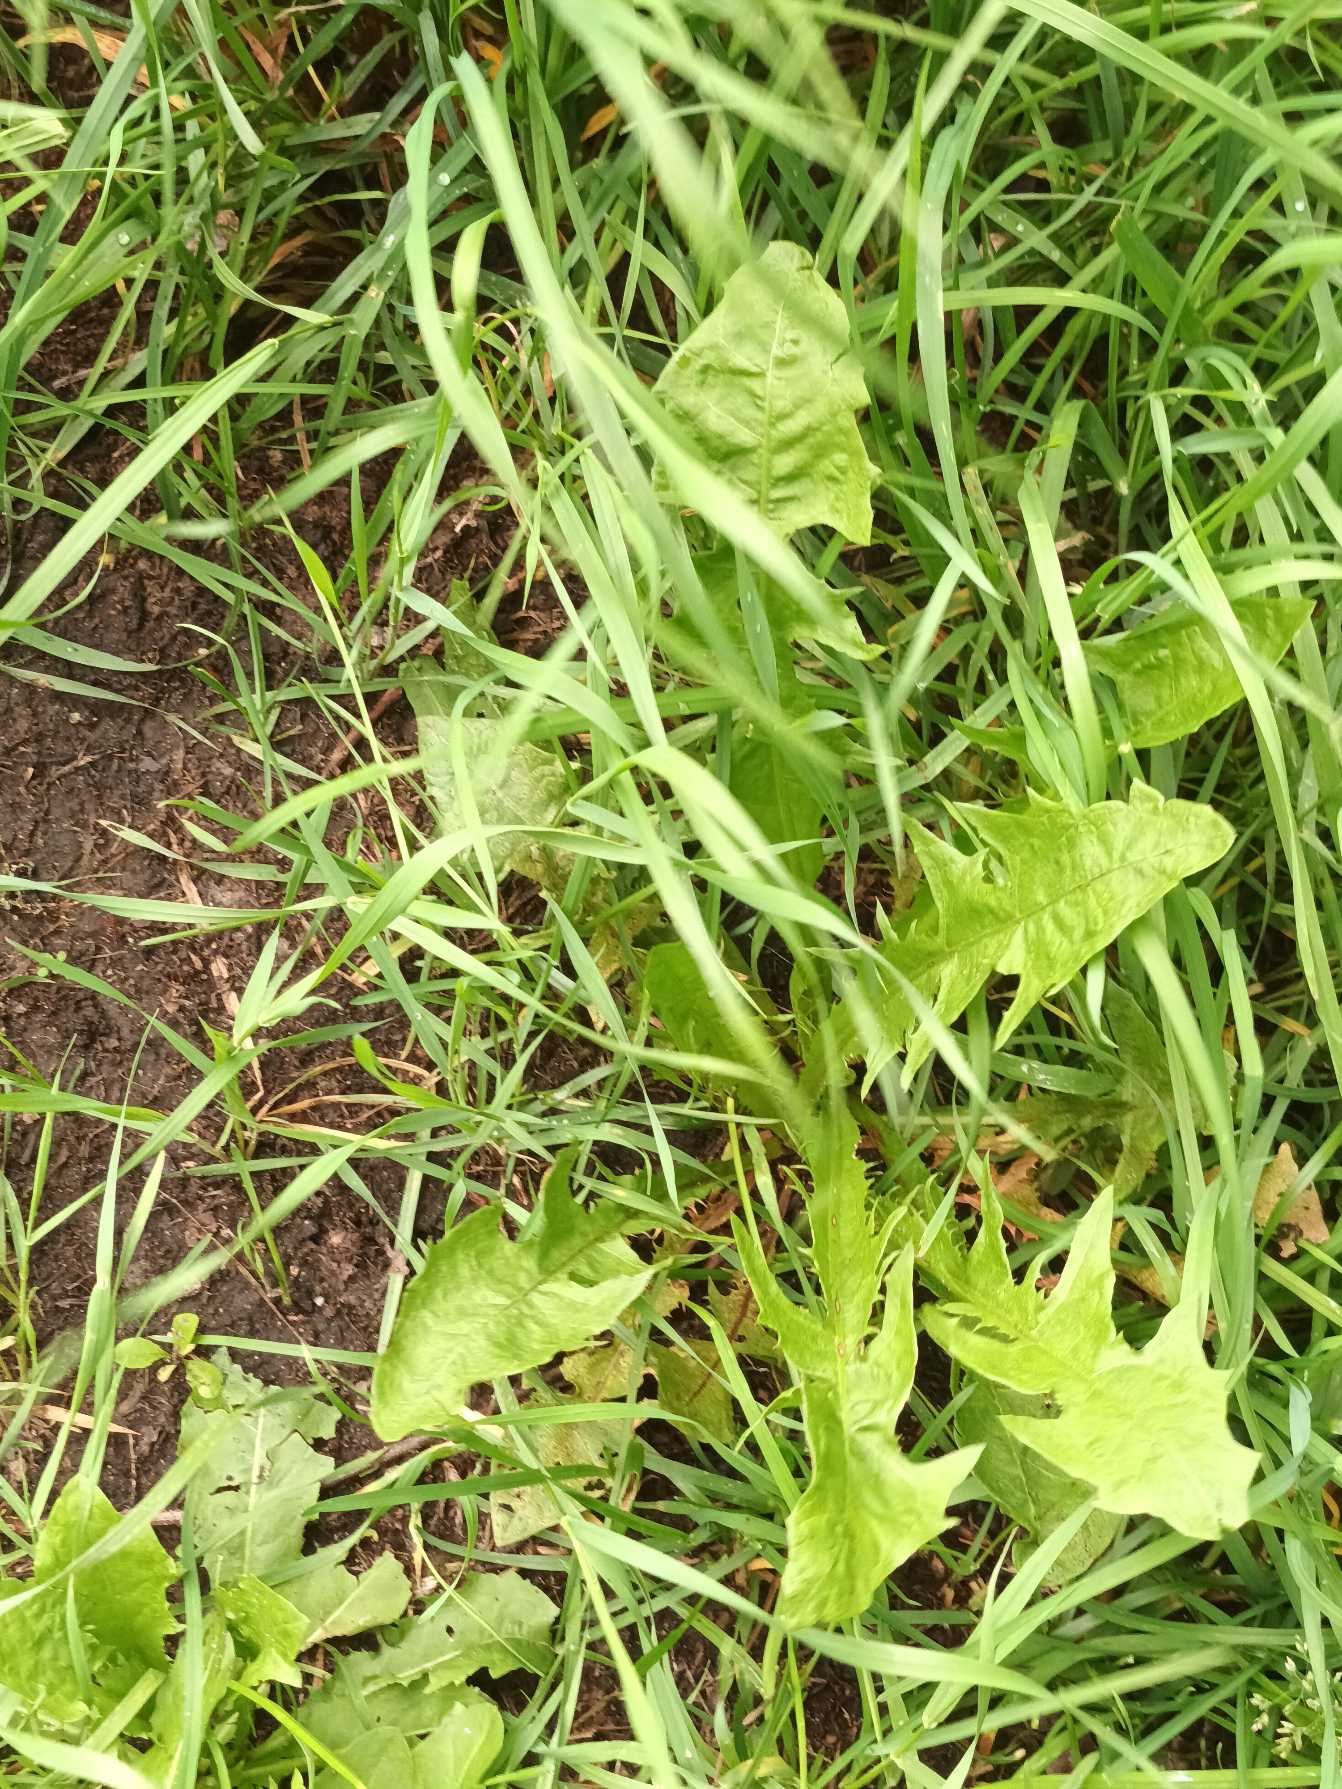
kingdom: Plantae
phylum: Tracheophyta
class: Magnoliopsida
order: Asterales
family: Asteraceae
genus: Taraxacum
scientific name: Taraxacum
